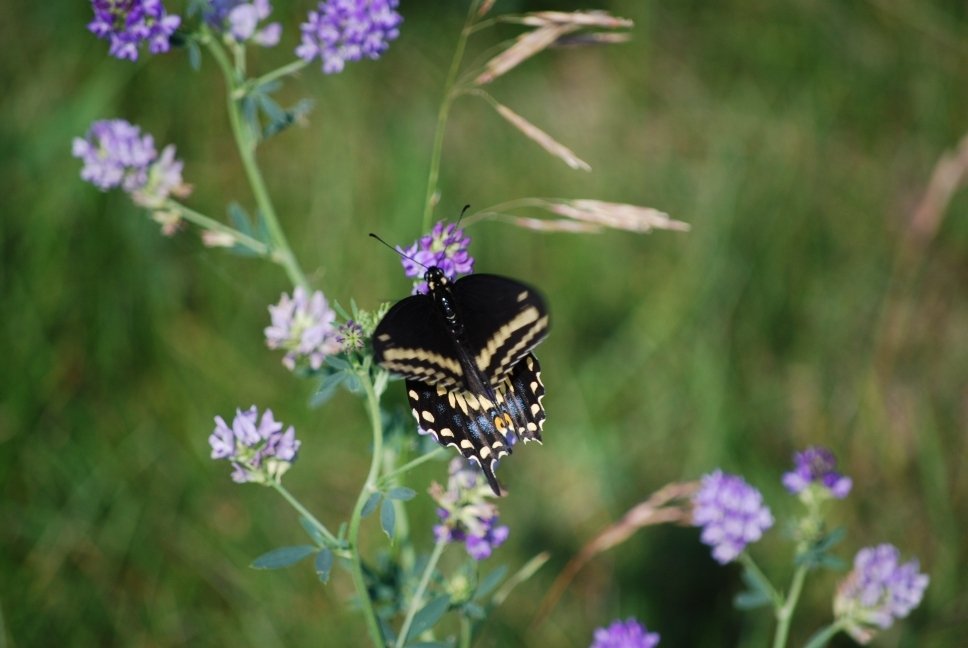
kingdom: Animalia
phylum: Arthropoda
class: Insecta
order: Lepidoptera
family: Papilionidae
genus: Papilio
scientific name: Papilio polyxenes
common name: Black Swallowtail
